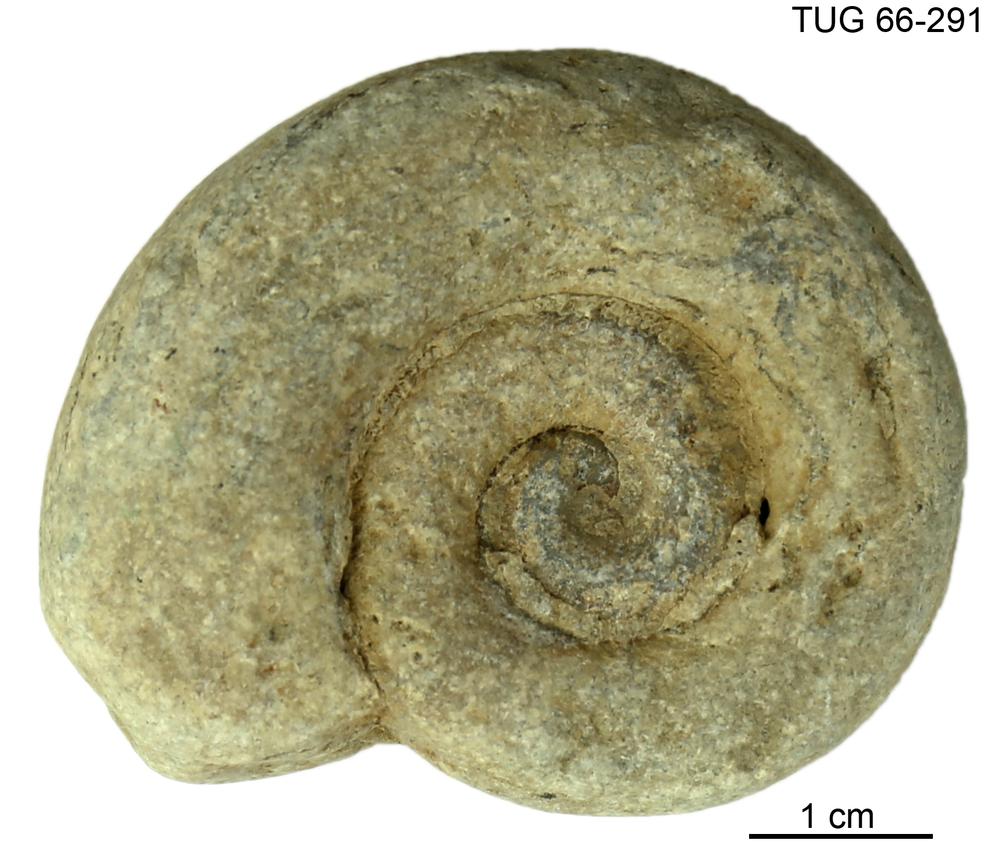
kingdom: Animalia
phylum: Mollusca
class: Cephalopoda
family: Trocholitidae
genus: Discoceras
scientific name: Discoceras
